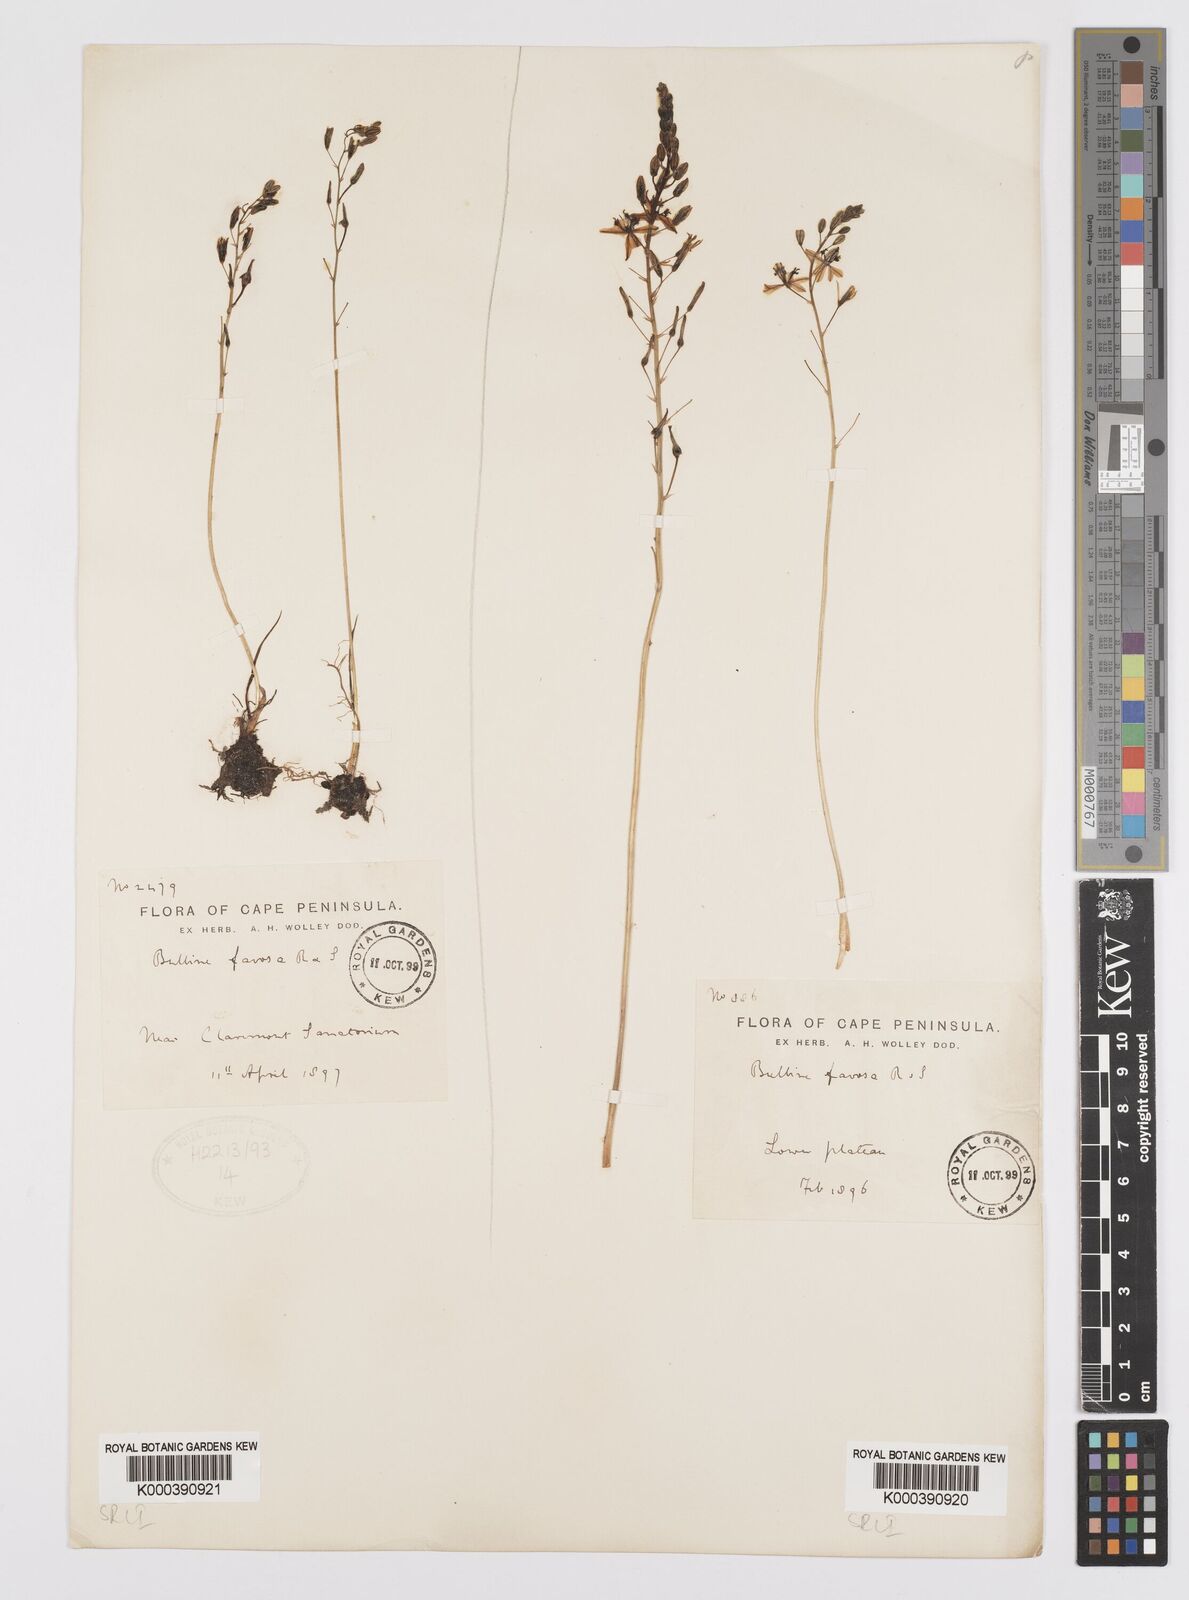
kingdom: Plantae
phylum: Tracheophyta
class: Liliopsida
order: Asparagales
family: Asphodelaceae
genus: Bulbine
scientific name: Bulbine favosa
